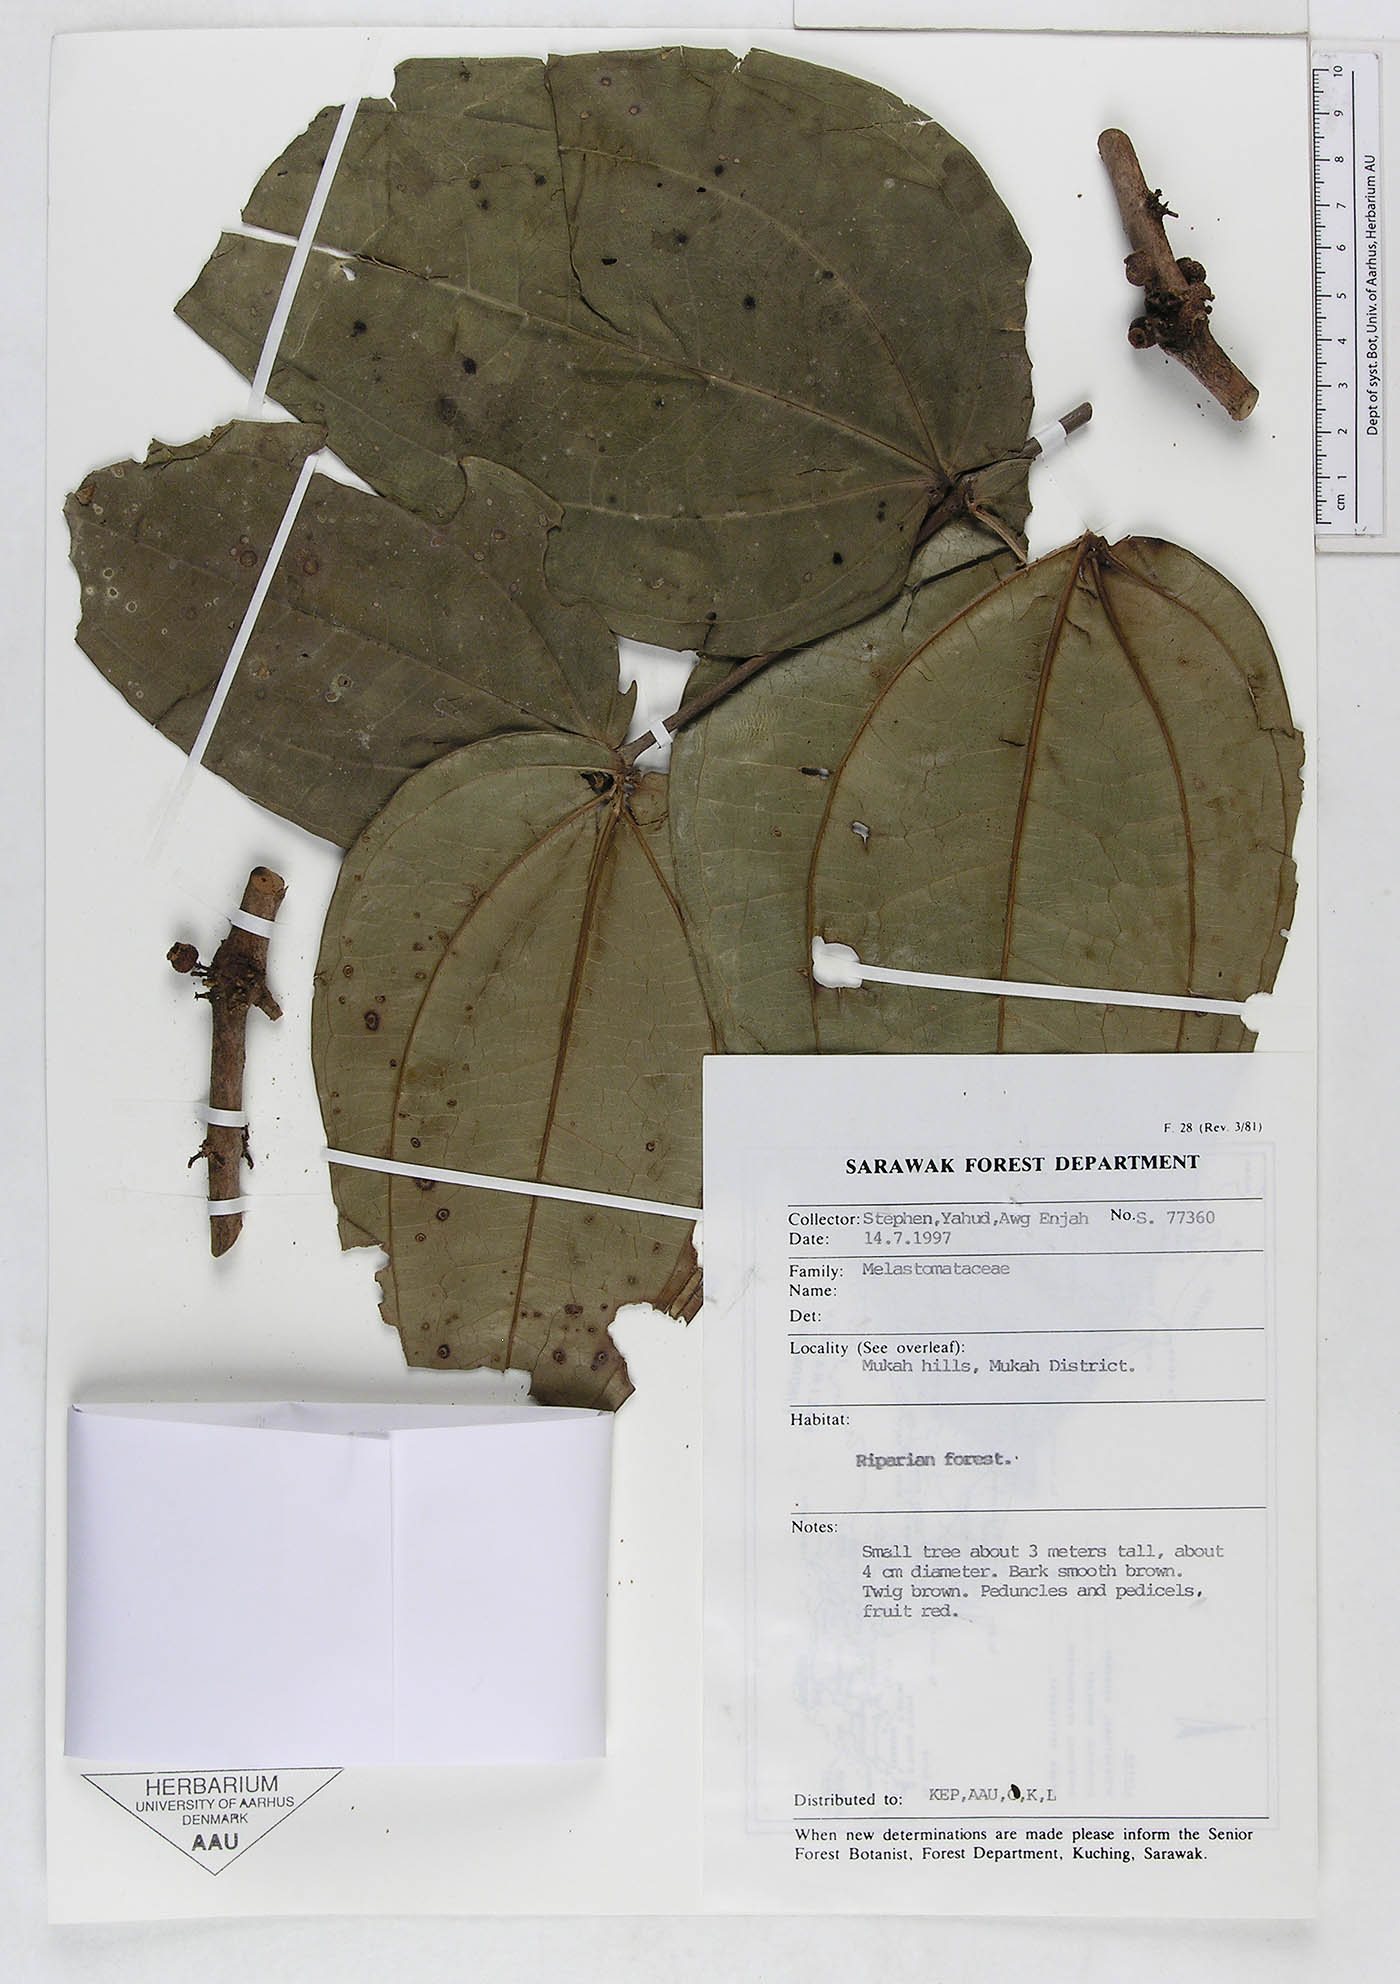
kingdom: Plantae
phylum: Tracheophyta
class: Magnoliopsida
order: Myrtales
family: Melastomataceae
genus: Pternandra
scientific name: Pternandra
